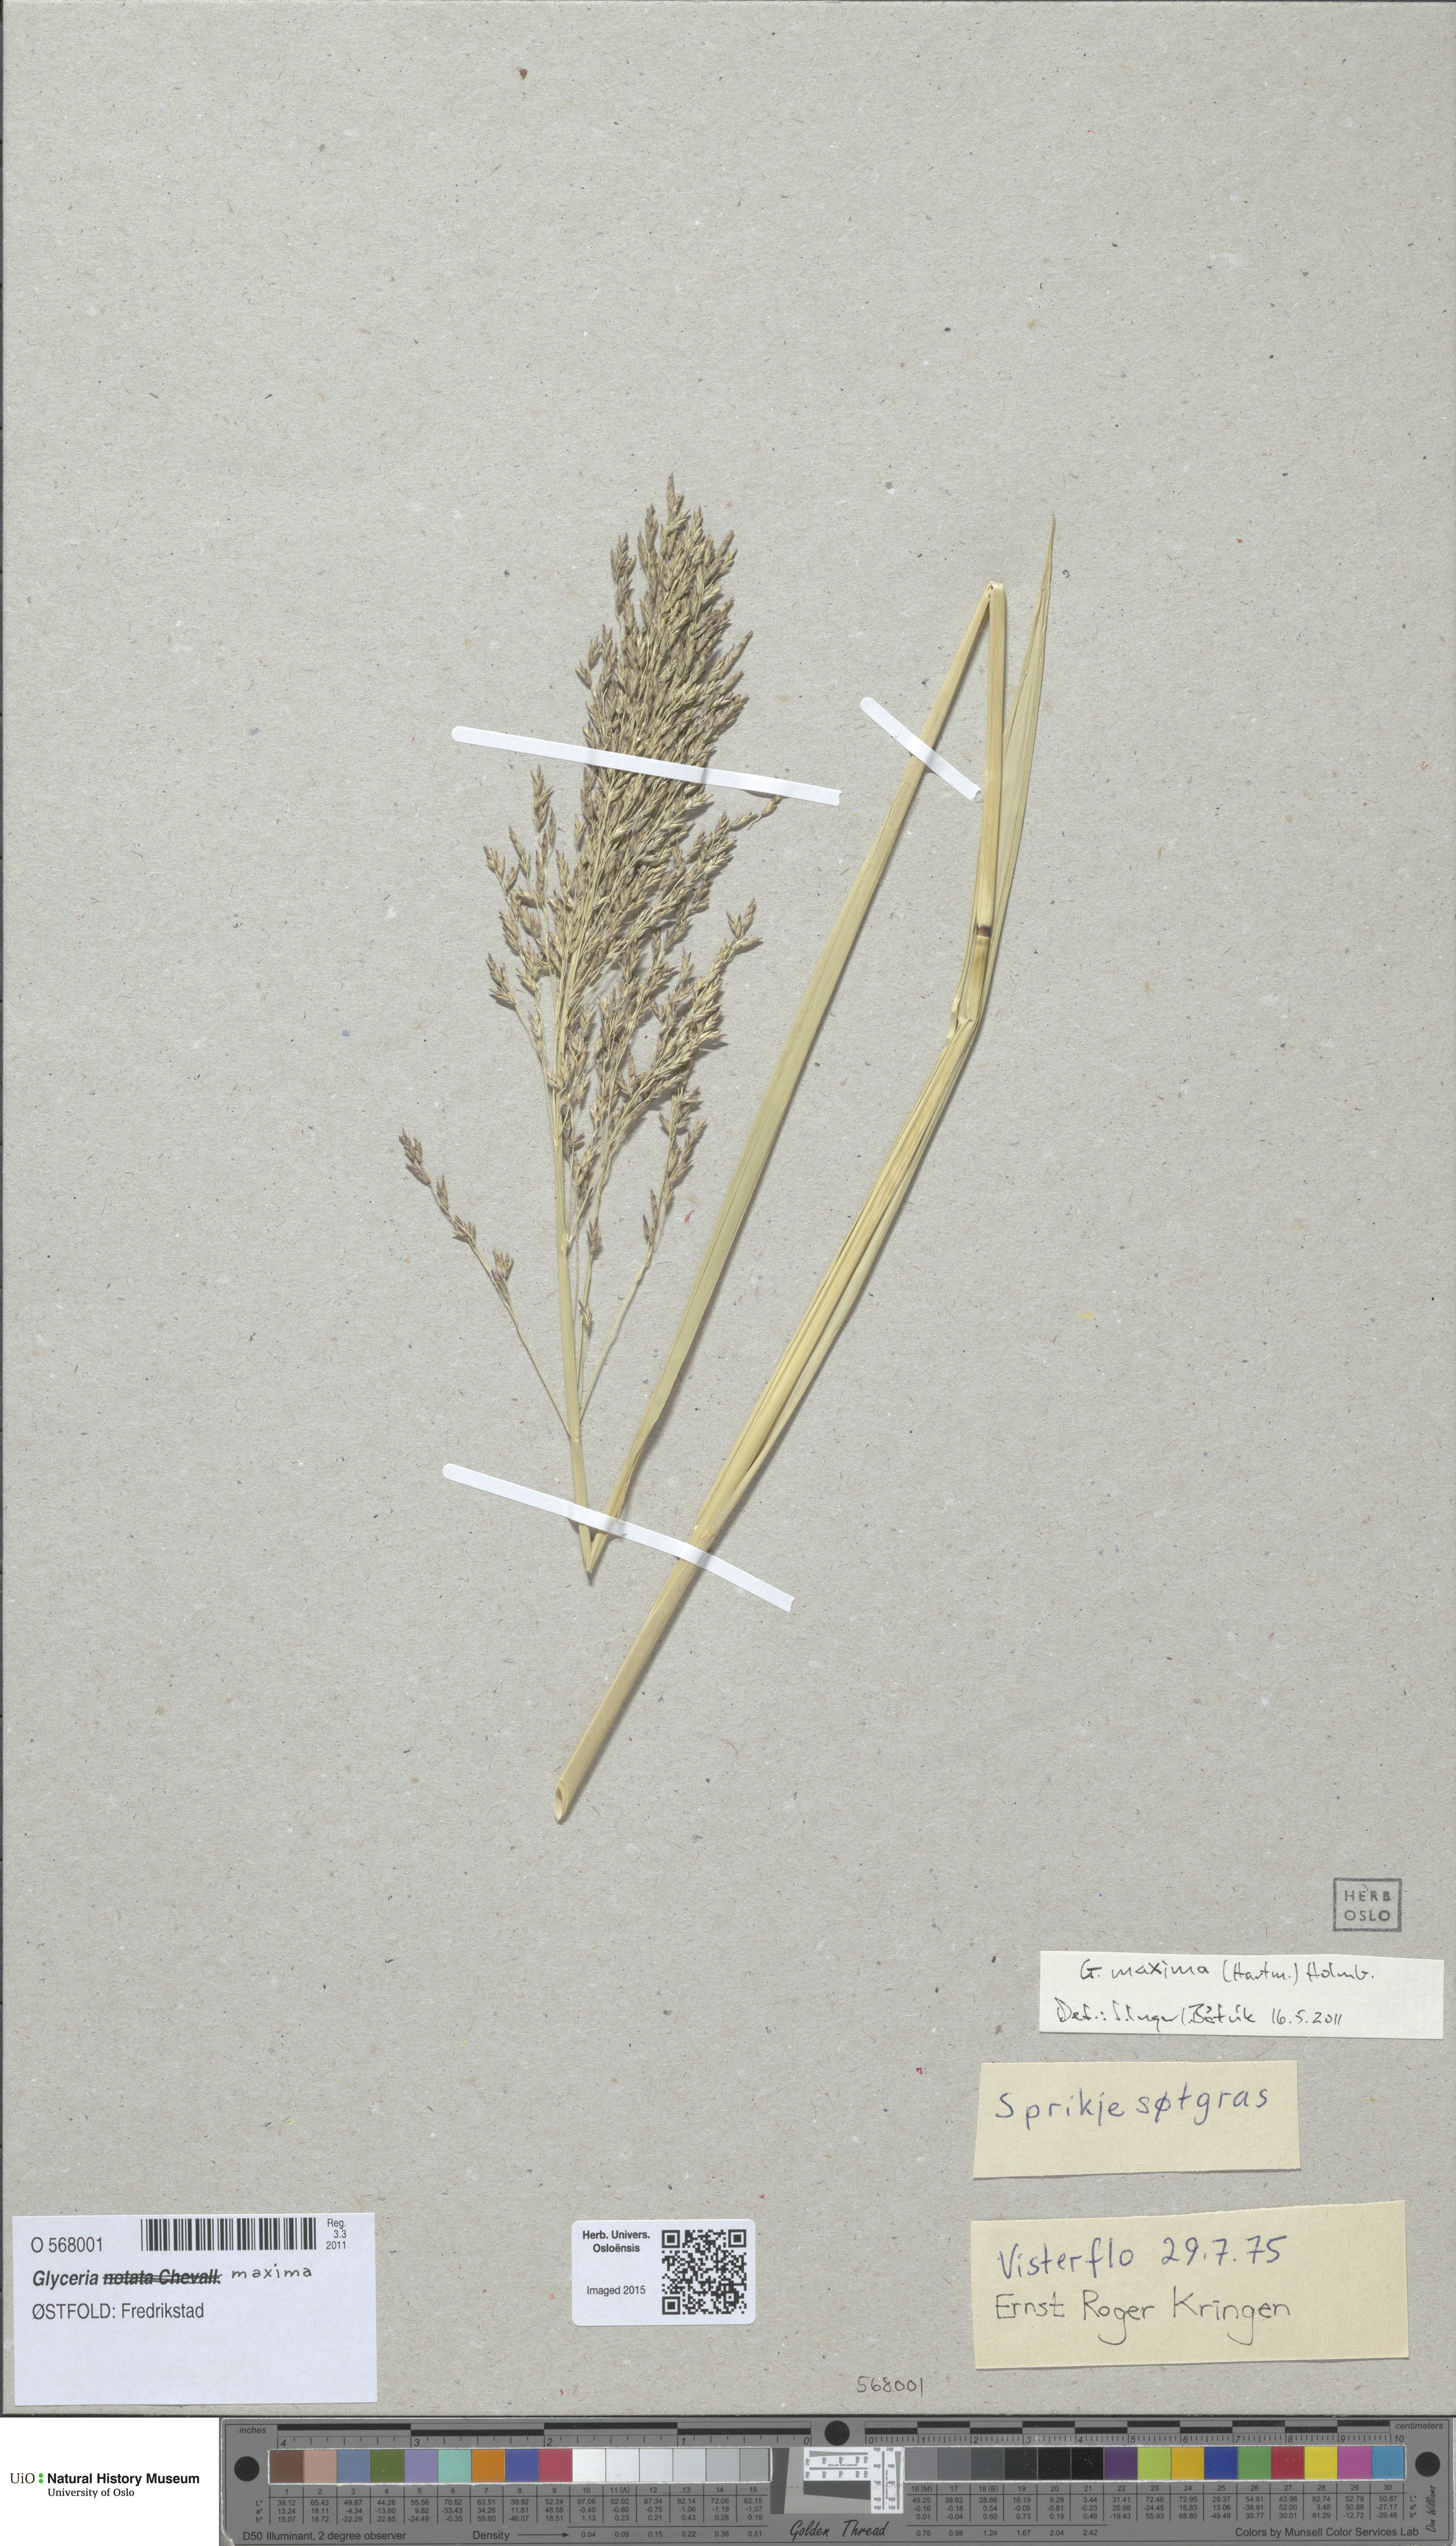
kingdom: Plantae
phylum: Tracheophyta
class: Liliopsida
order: Poales
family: Poaceae
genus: Glyceria
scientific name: Glyceria maxima
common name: Reed mannagrass
